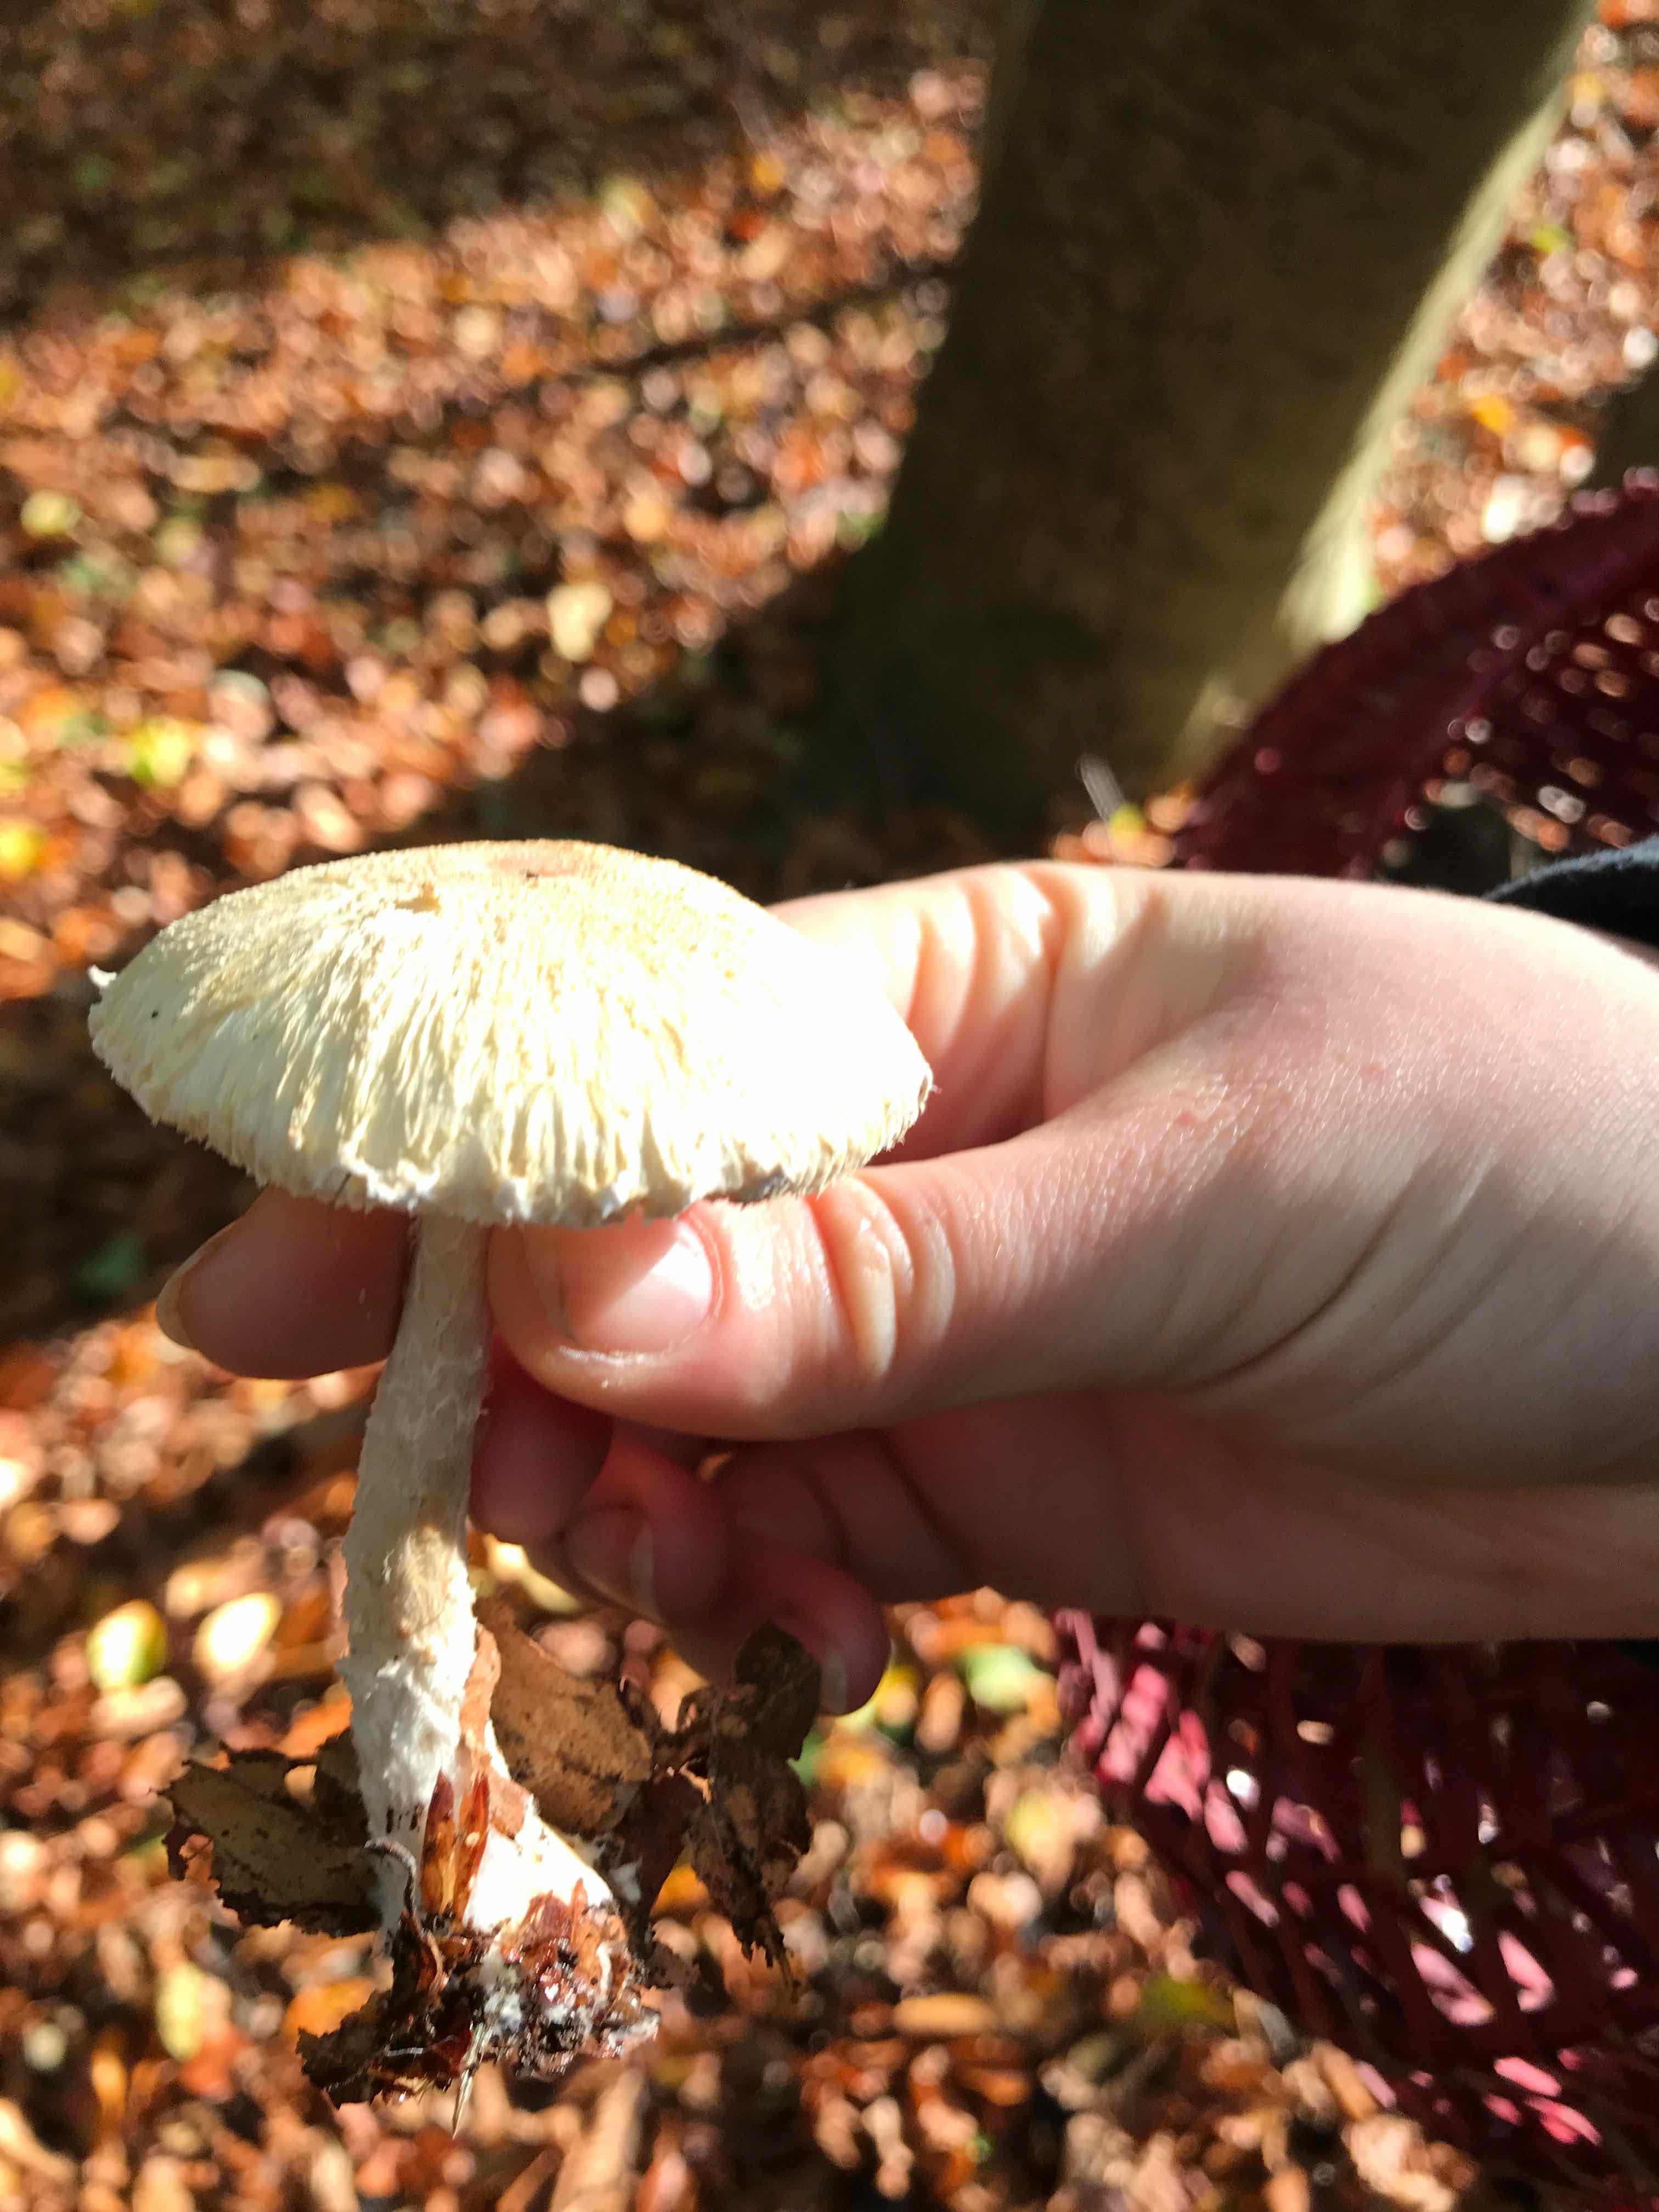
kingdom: Fungi
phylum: Basidiomycota
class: Agaricomycetes
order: Agaricales
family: Agaricaceae
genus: Lepiota
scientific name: Lepiota
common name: parasolhat
